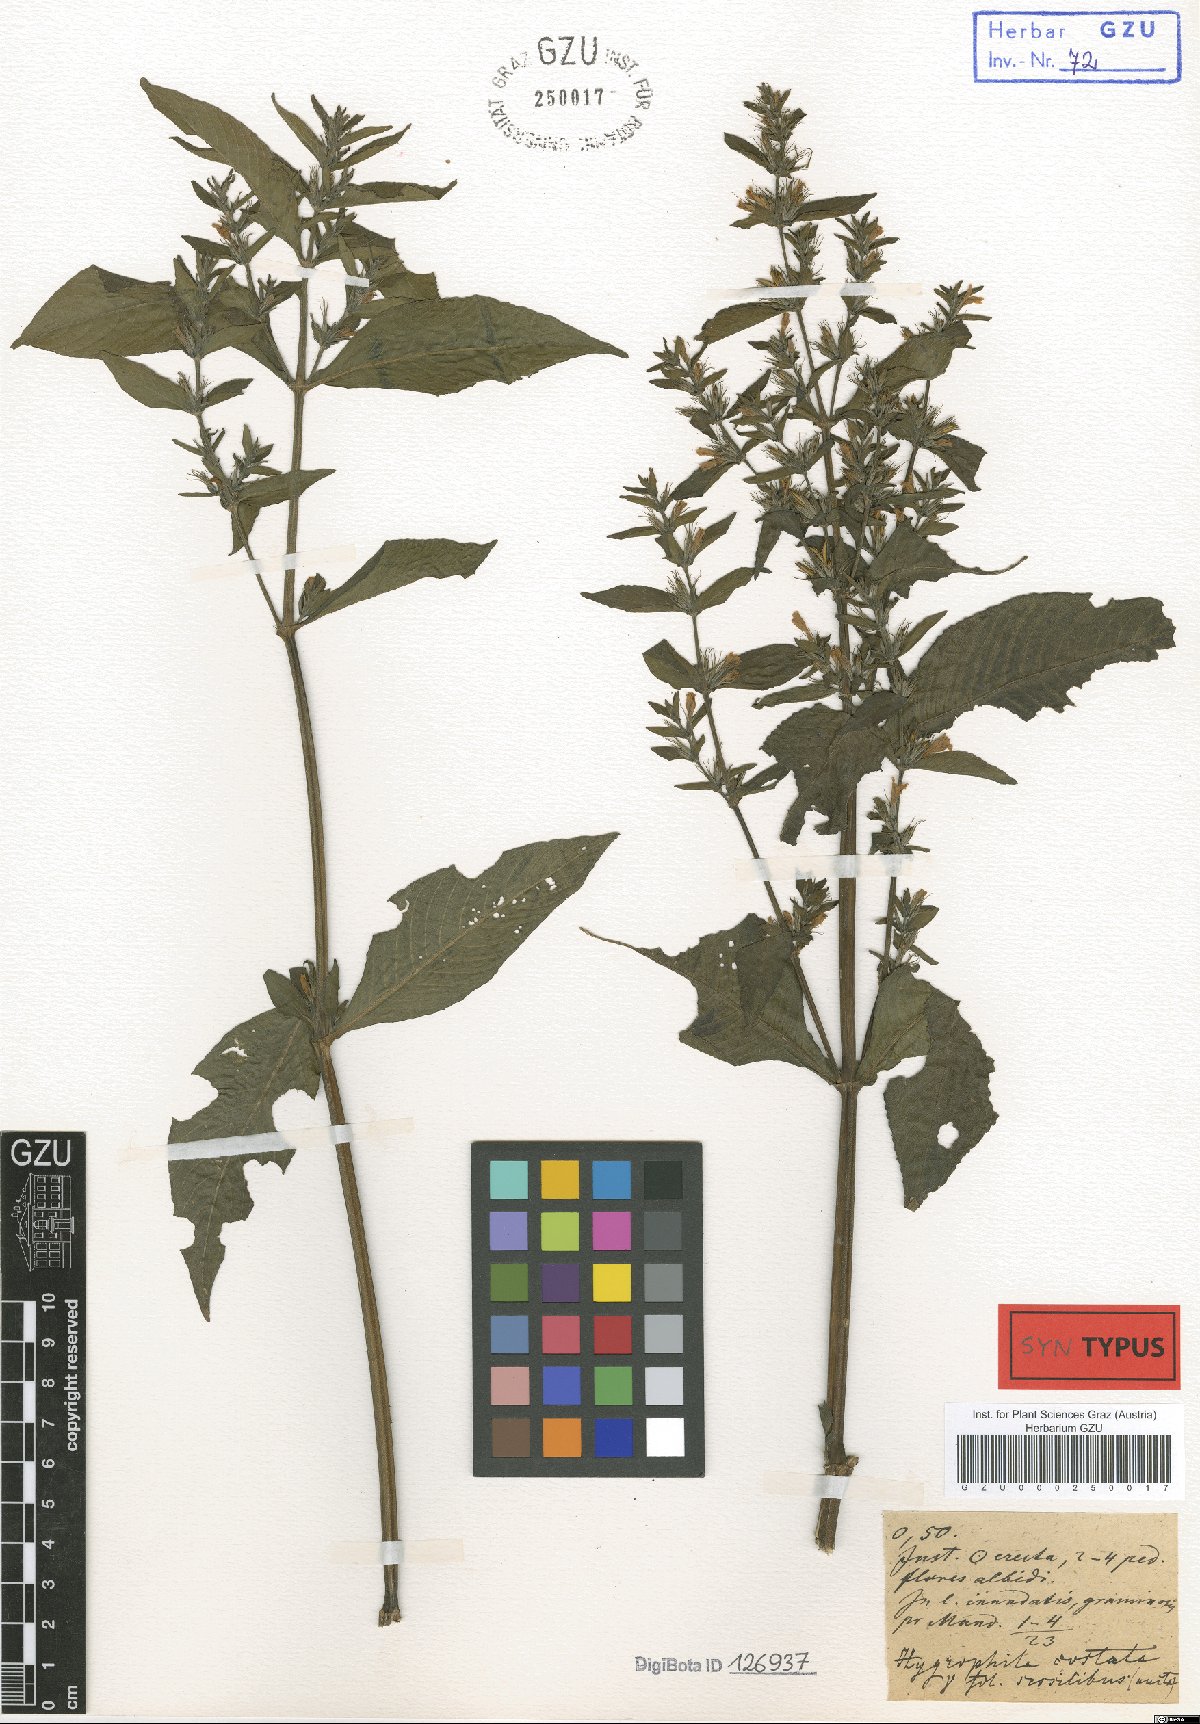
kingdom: Plantae
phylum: Tracheophyta
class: Magnoliopsida
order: Lamiales
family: Acanthaceae
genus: Hygrophila
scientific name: Hygrophila costata
